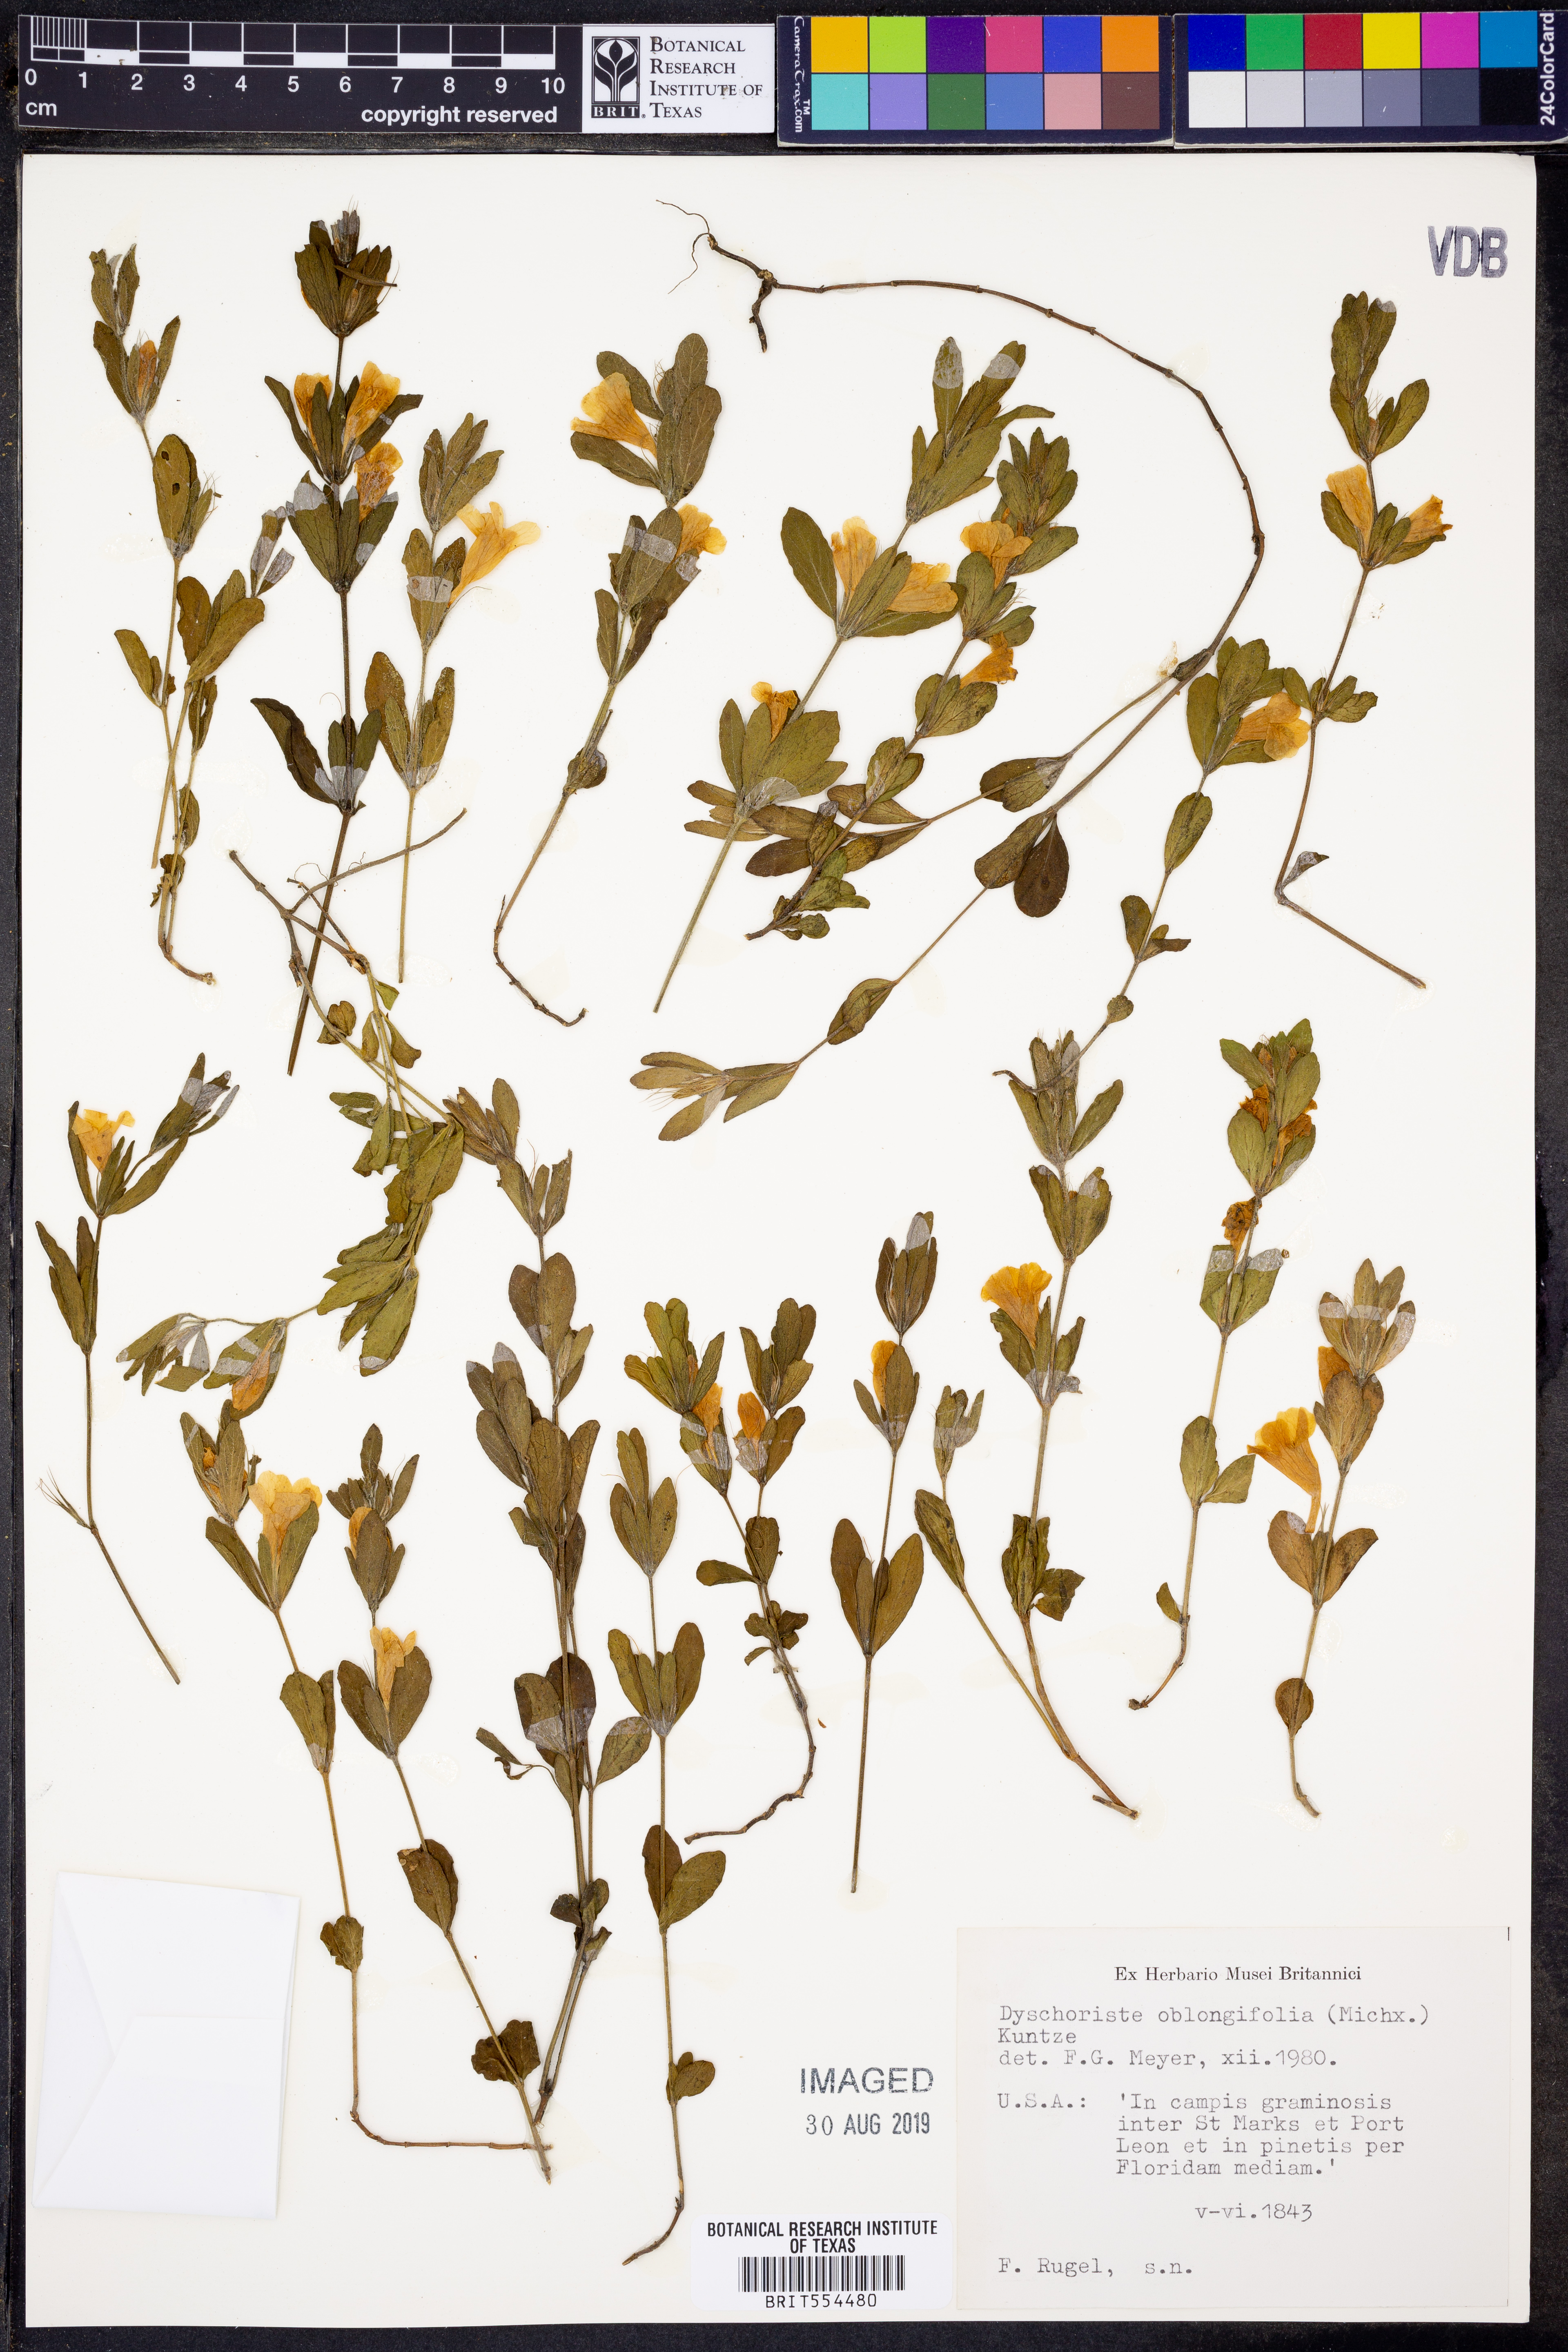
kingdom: Plantae
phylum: Tracheophyta
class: Magnoliopsida
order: Lamiales
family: Acanthaceae
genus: Dyschoriste
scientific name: Dyschoriste oblongifolia
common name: Blue twinflower
